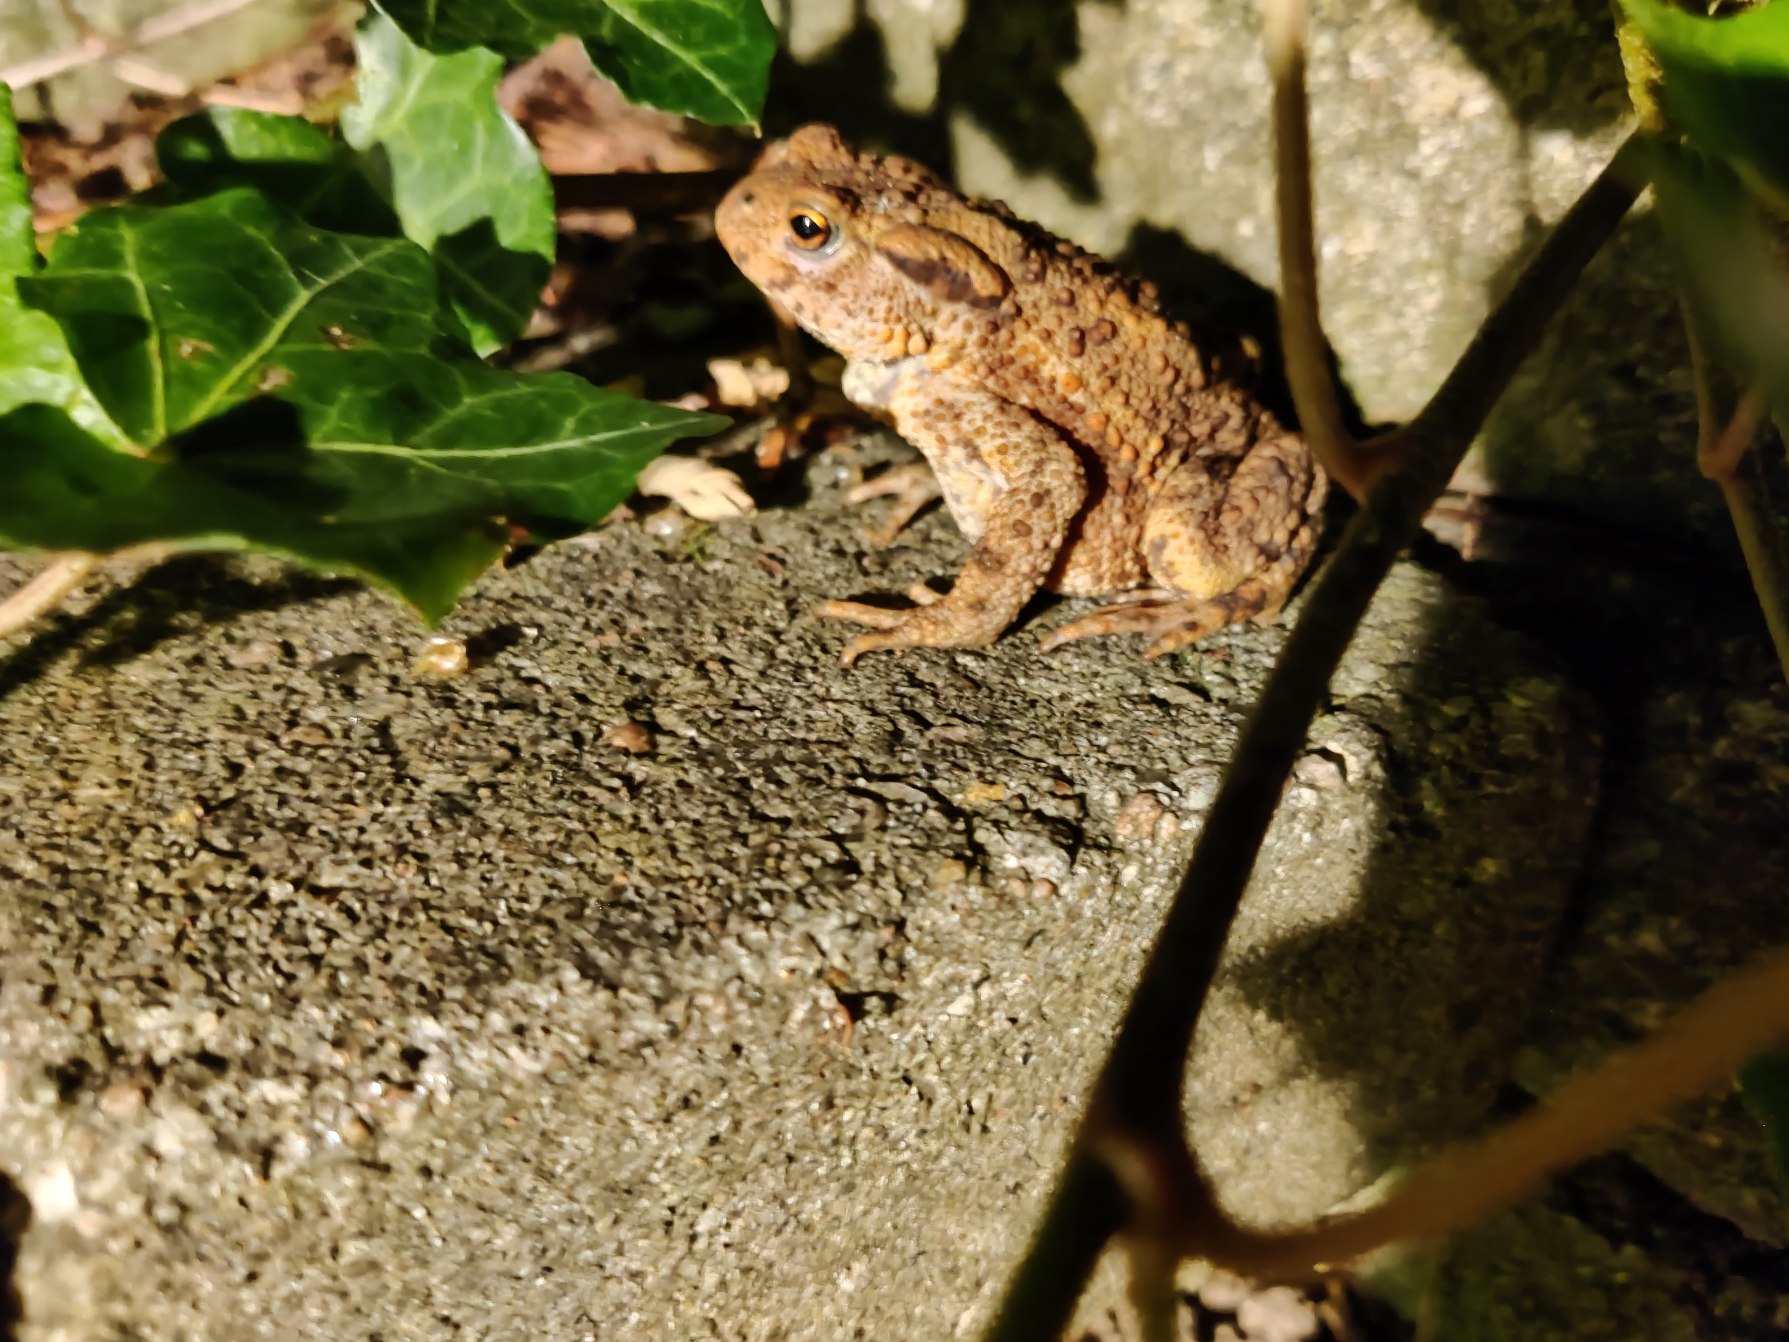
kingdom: Animalia
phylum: Chordata
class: Amphibia
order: Anura
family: Bufonidae
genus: Bufo
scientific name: Bufo bufo
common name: Skrubtudse
